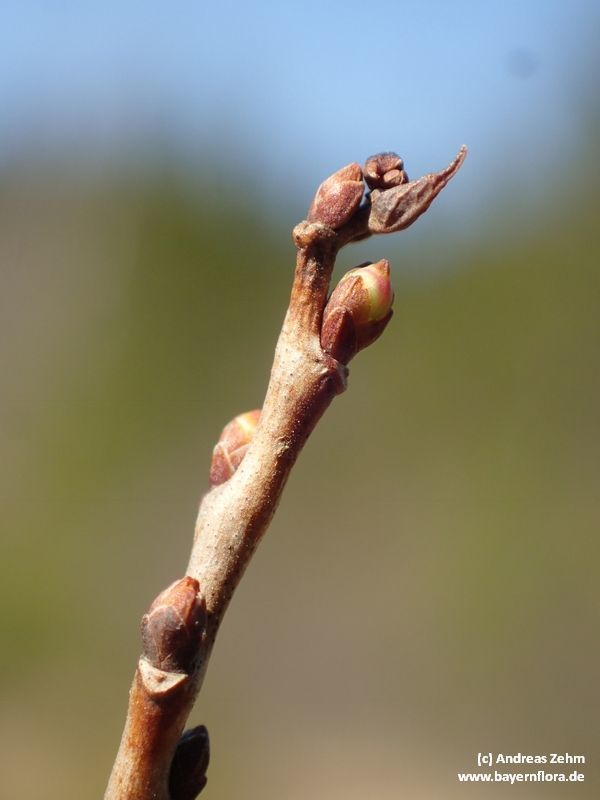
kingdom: Plantae
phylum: Tracheophyta
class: Magnoliopsida
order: Ericales
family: Ericaceae
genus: Vaccinium
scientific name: Vaccinium uliginosum
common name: Bog bilberry
